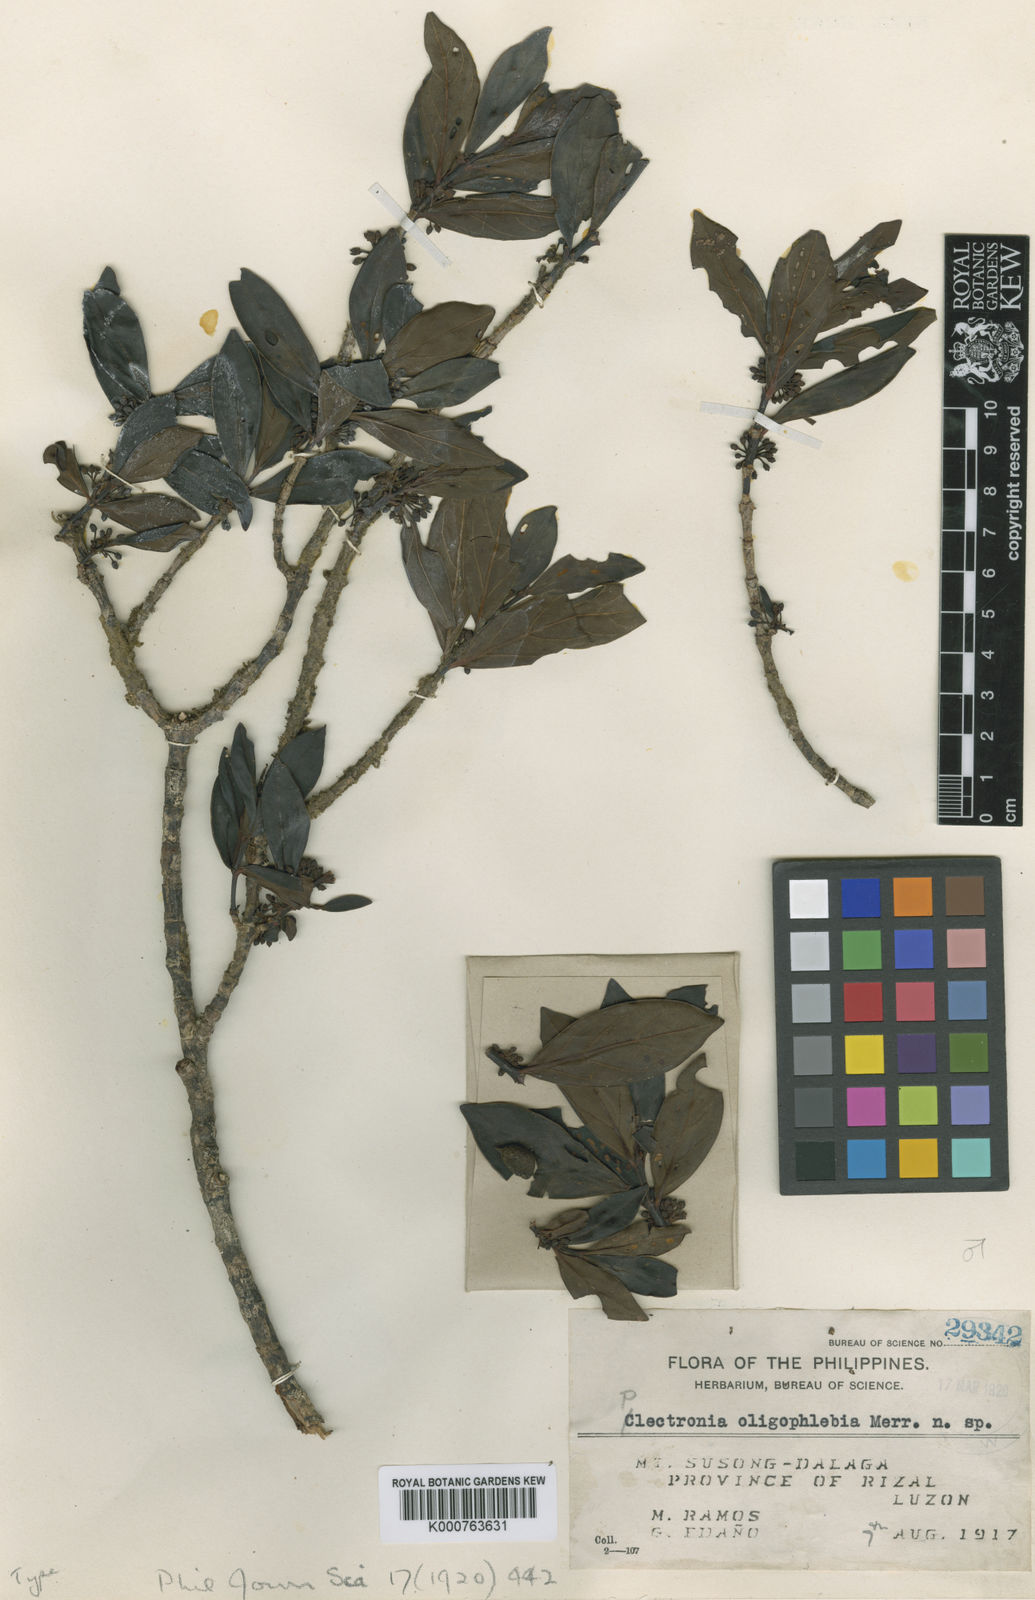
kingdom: Plantae
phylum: Tracheophyta
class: Magnoliopsida
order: Gentianales
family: Rubiaceae
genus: Pyrostria
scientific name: Pyrostria oligophlebia
